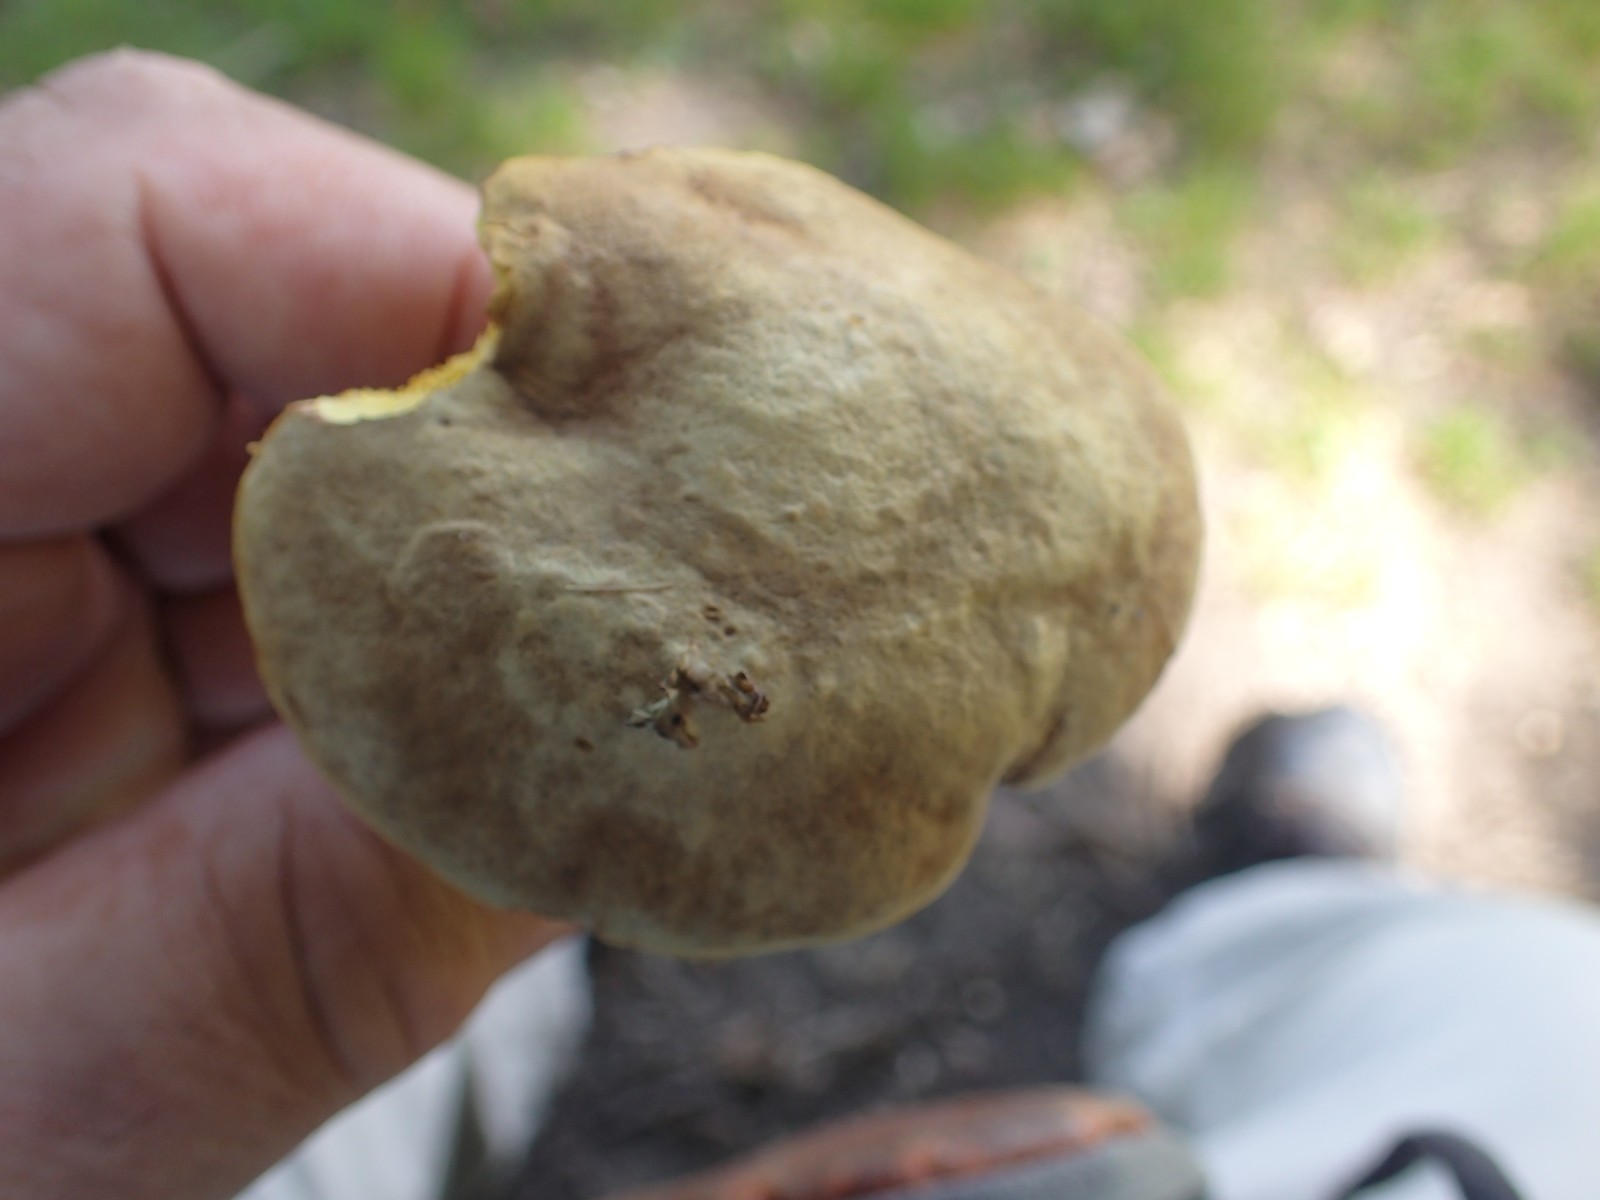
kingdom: Fungi
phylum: Basidiomycota
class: Agaricomycetes
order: Boletales
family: Boletaceae
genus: Xerocomus
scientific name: Xerocomus ferrugineus
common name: vaskeskinds-rørhat
